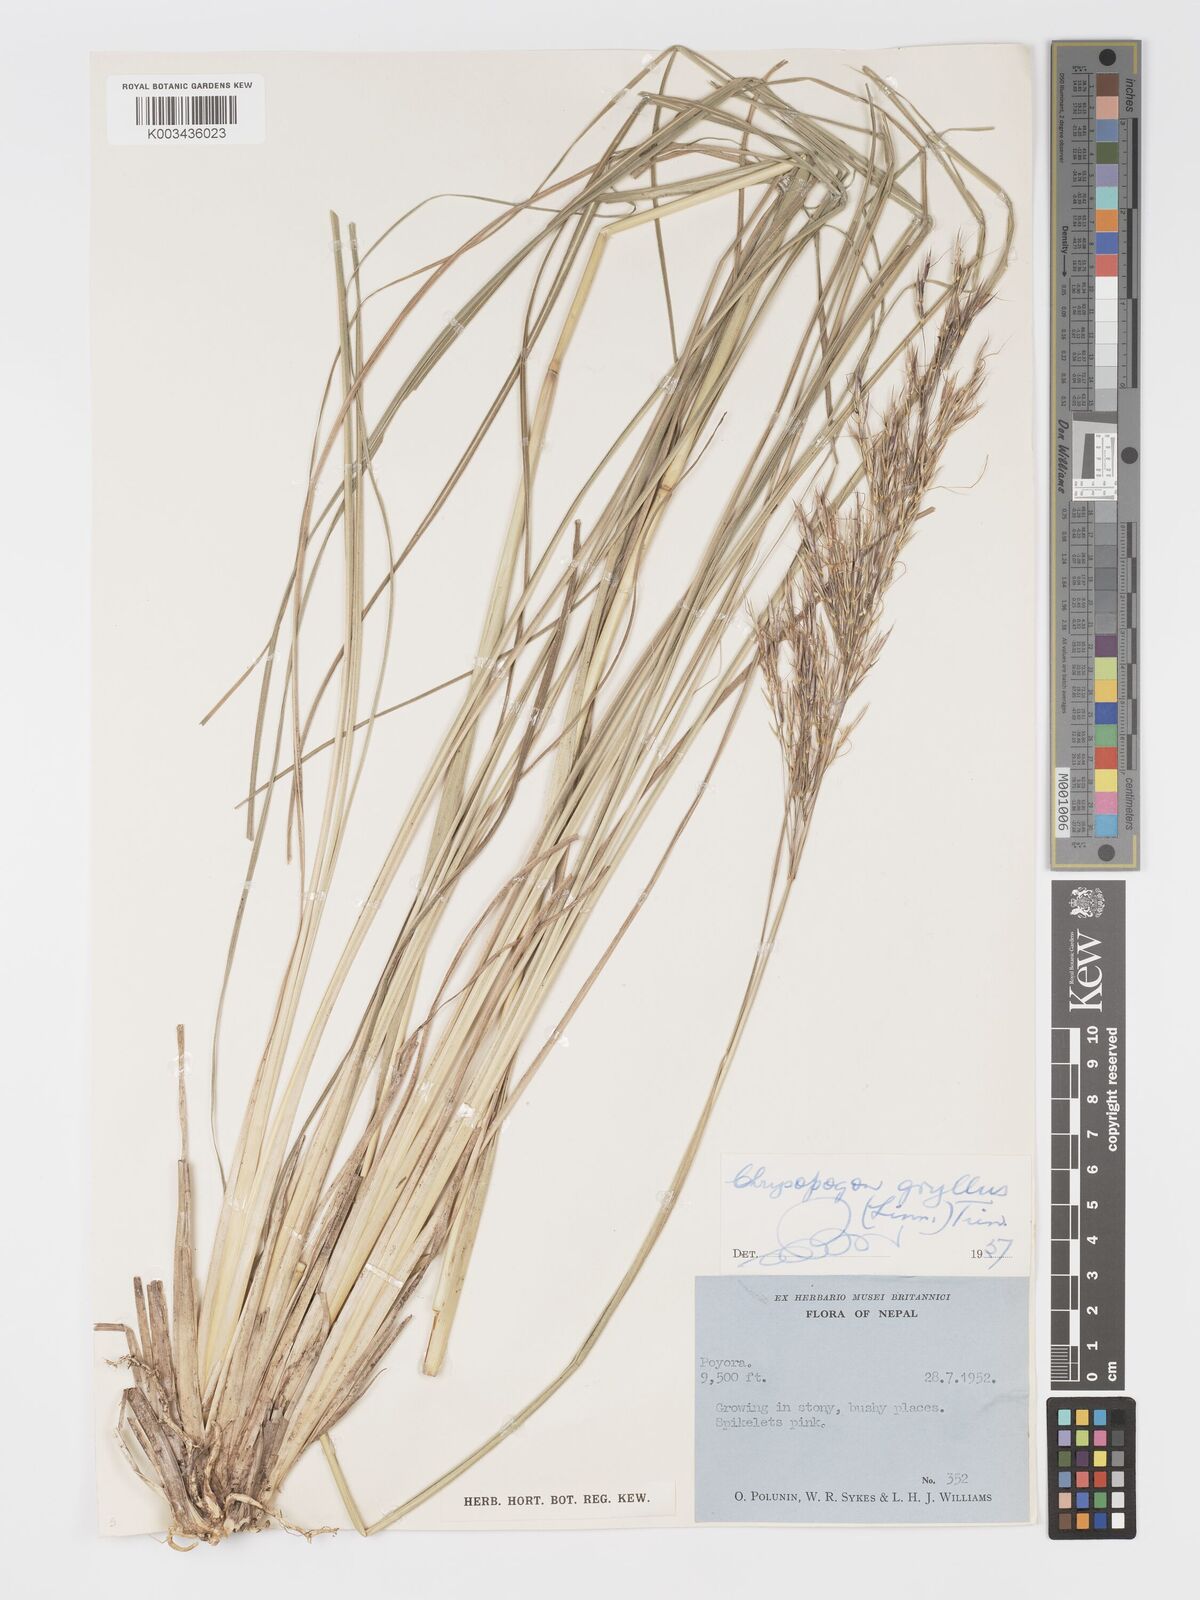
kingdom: Plantae
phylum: Tracheophyta
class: Liliopsida
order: Poales
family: Poaceae
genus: Chrysopogon
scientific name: Chrysopogon gryllus
